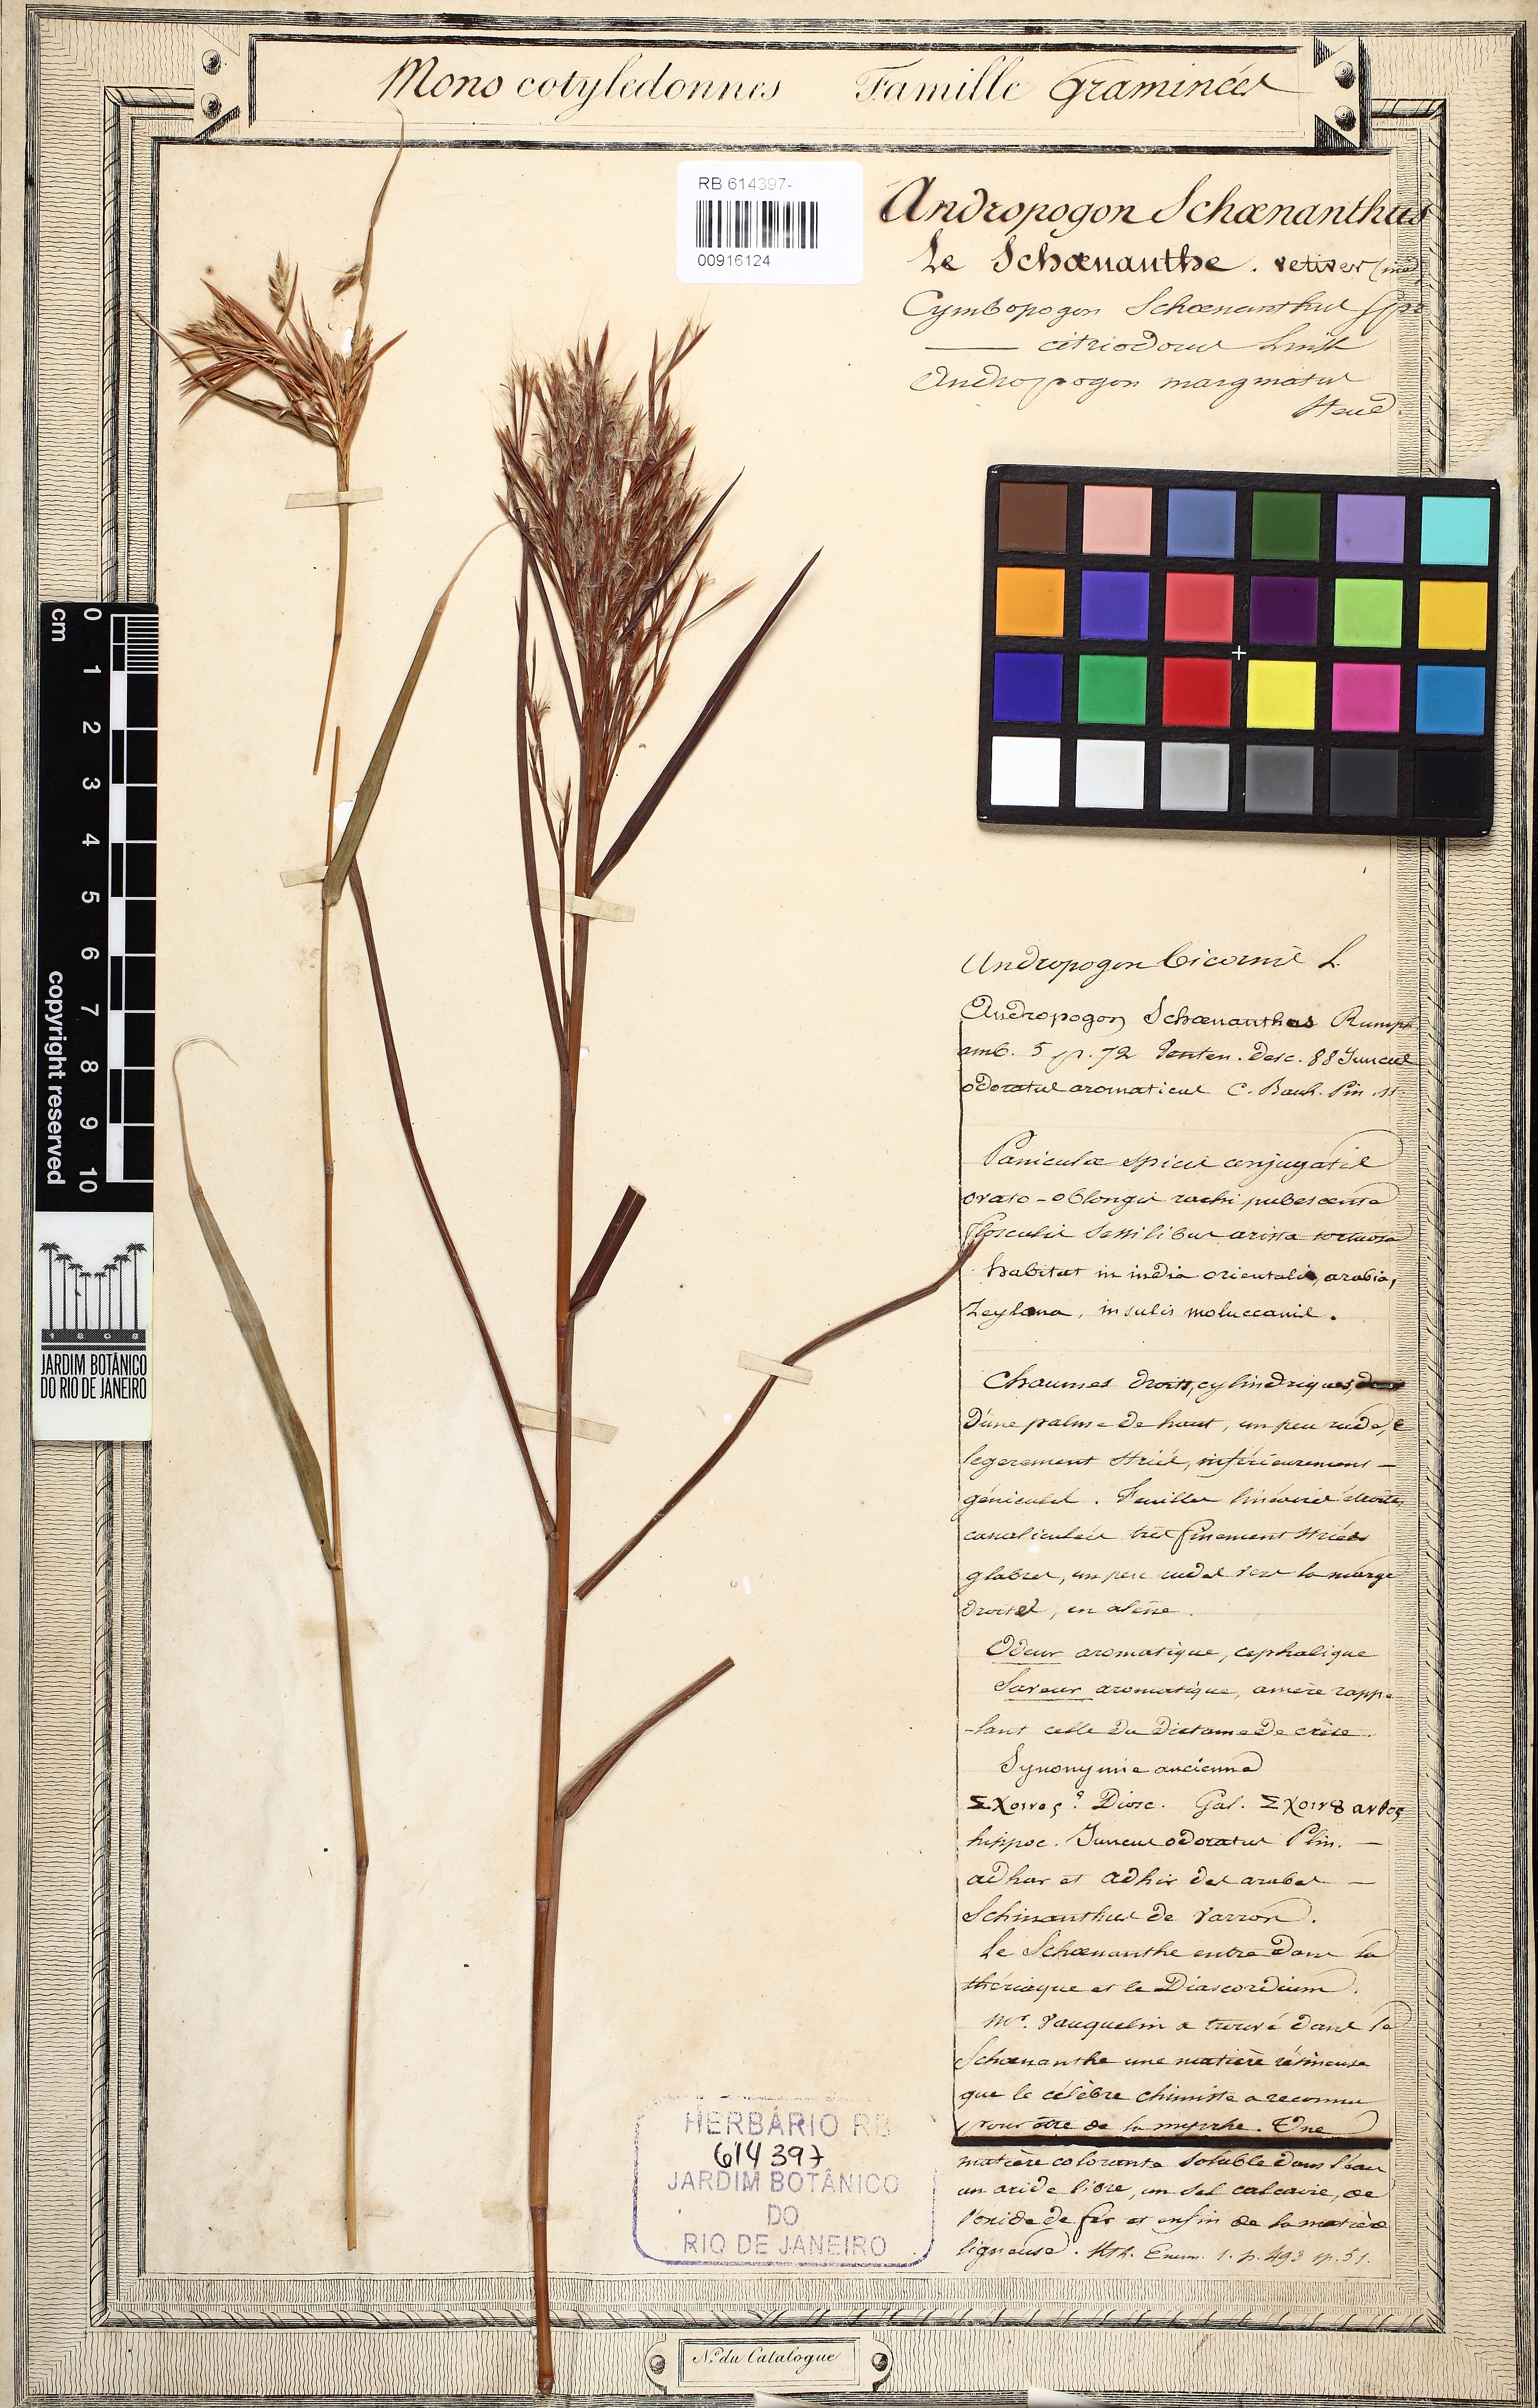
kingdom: Plantae
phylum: Tracheophyta
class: Liliopsida
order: Poales
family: Poaceae
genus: Cymbopogon
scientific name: Cymbopogon schoenanthus
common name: Geranium grass
